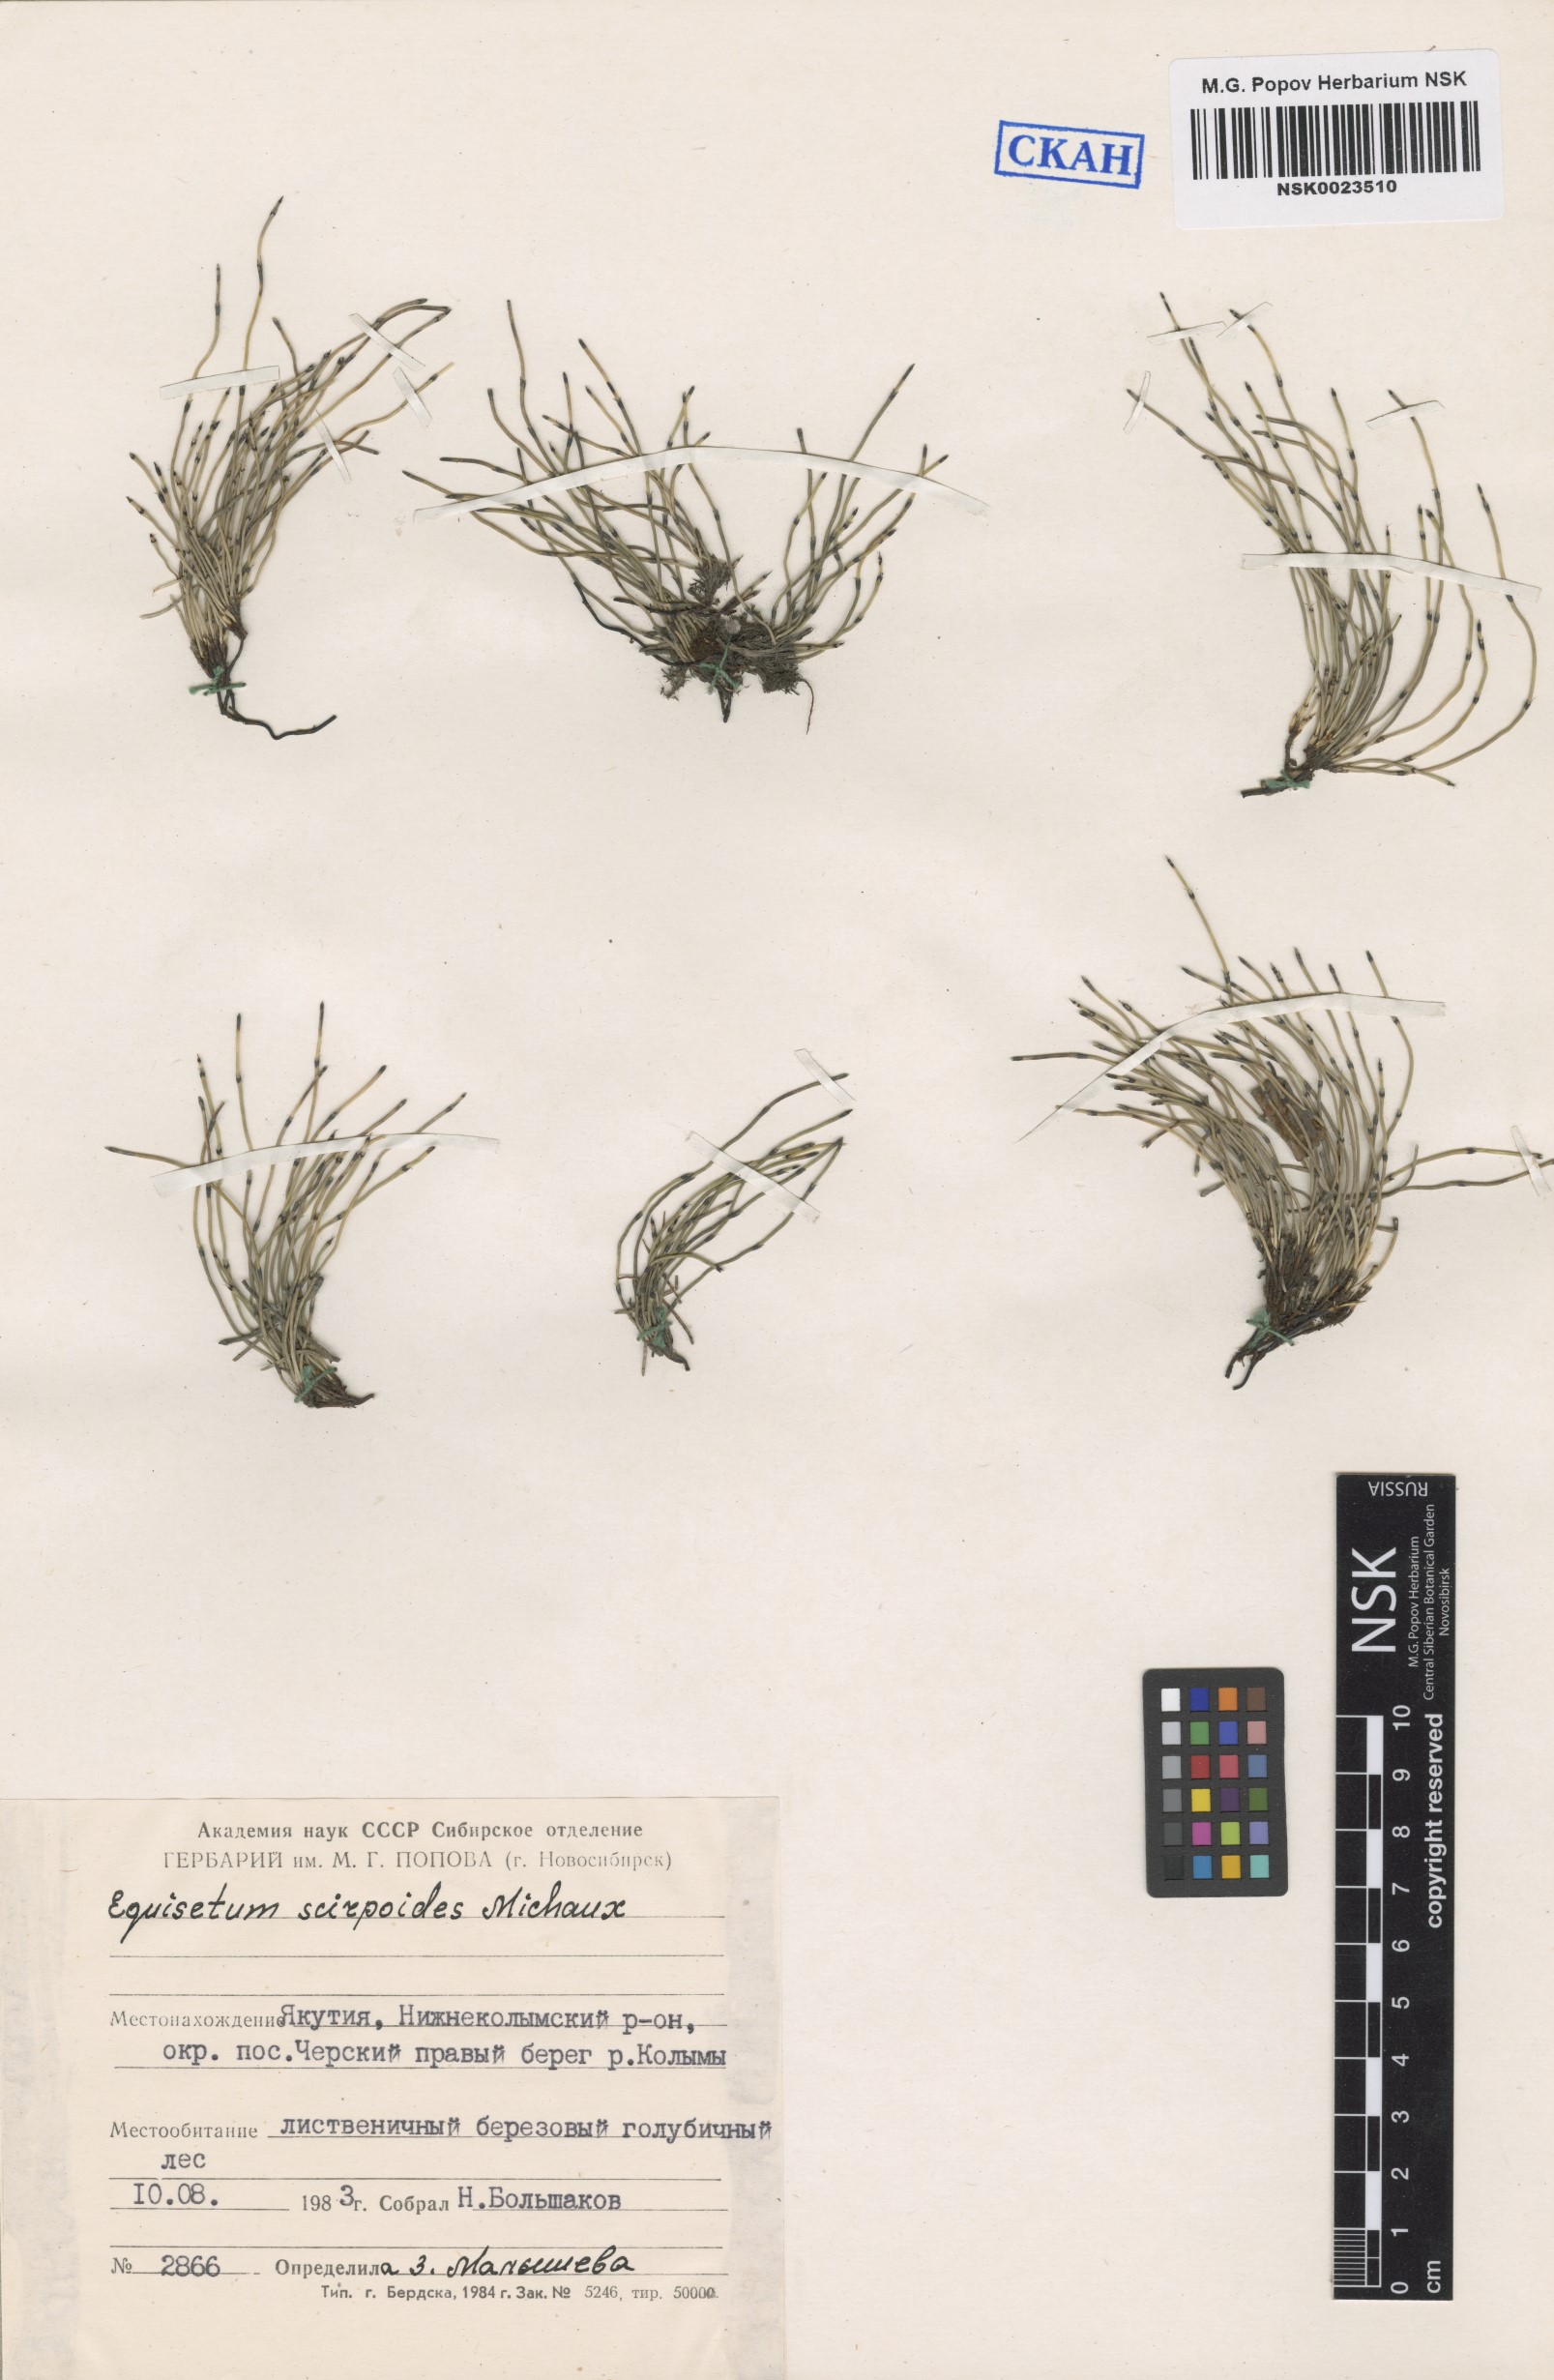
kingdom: Plantae
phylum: Tracheophyta
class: Polypodiopsida
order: Equisetales
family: Equisetaceae
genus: Equisetum
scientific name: Equisetum scirpoides
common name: Delicate horsetail
